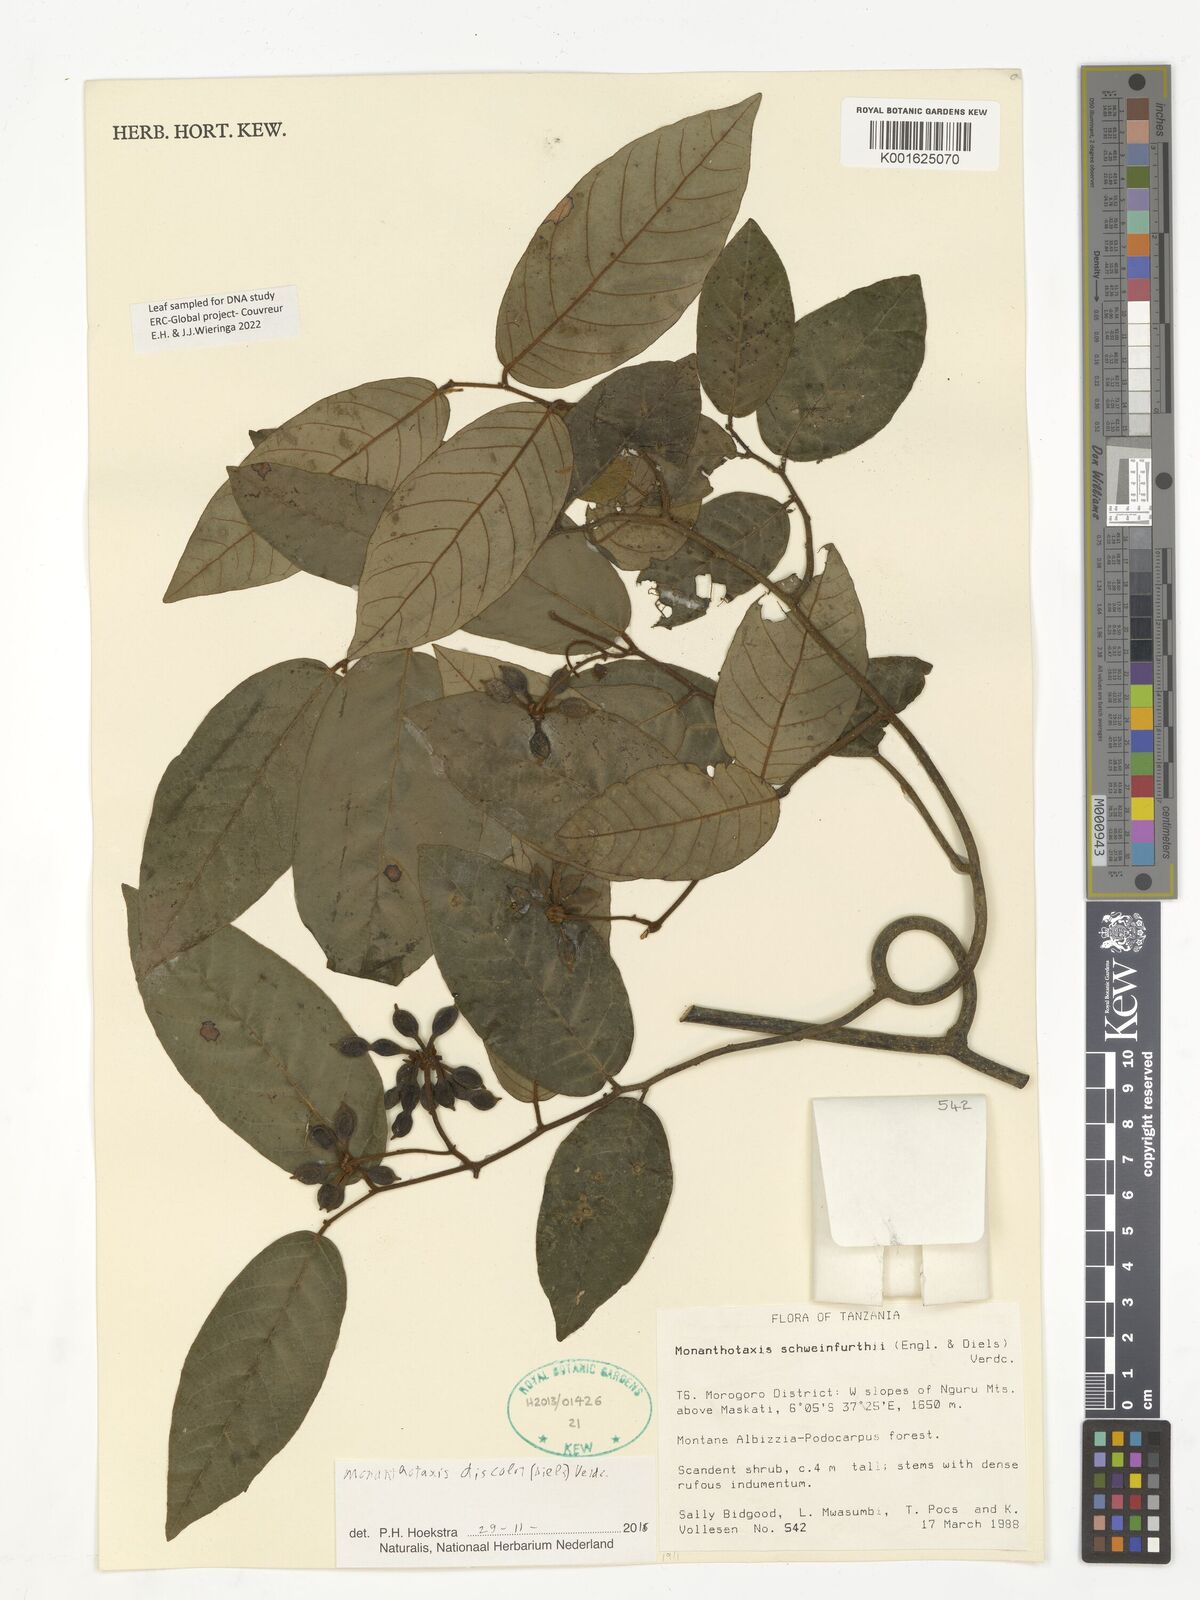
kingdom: Plantae
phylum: Tracheophyta
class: Magnoliopsida
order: Magnoliales
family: Annonaceae
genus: Monanthotaxis
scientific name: Monanthotaxis discolor
